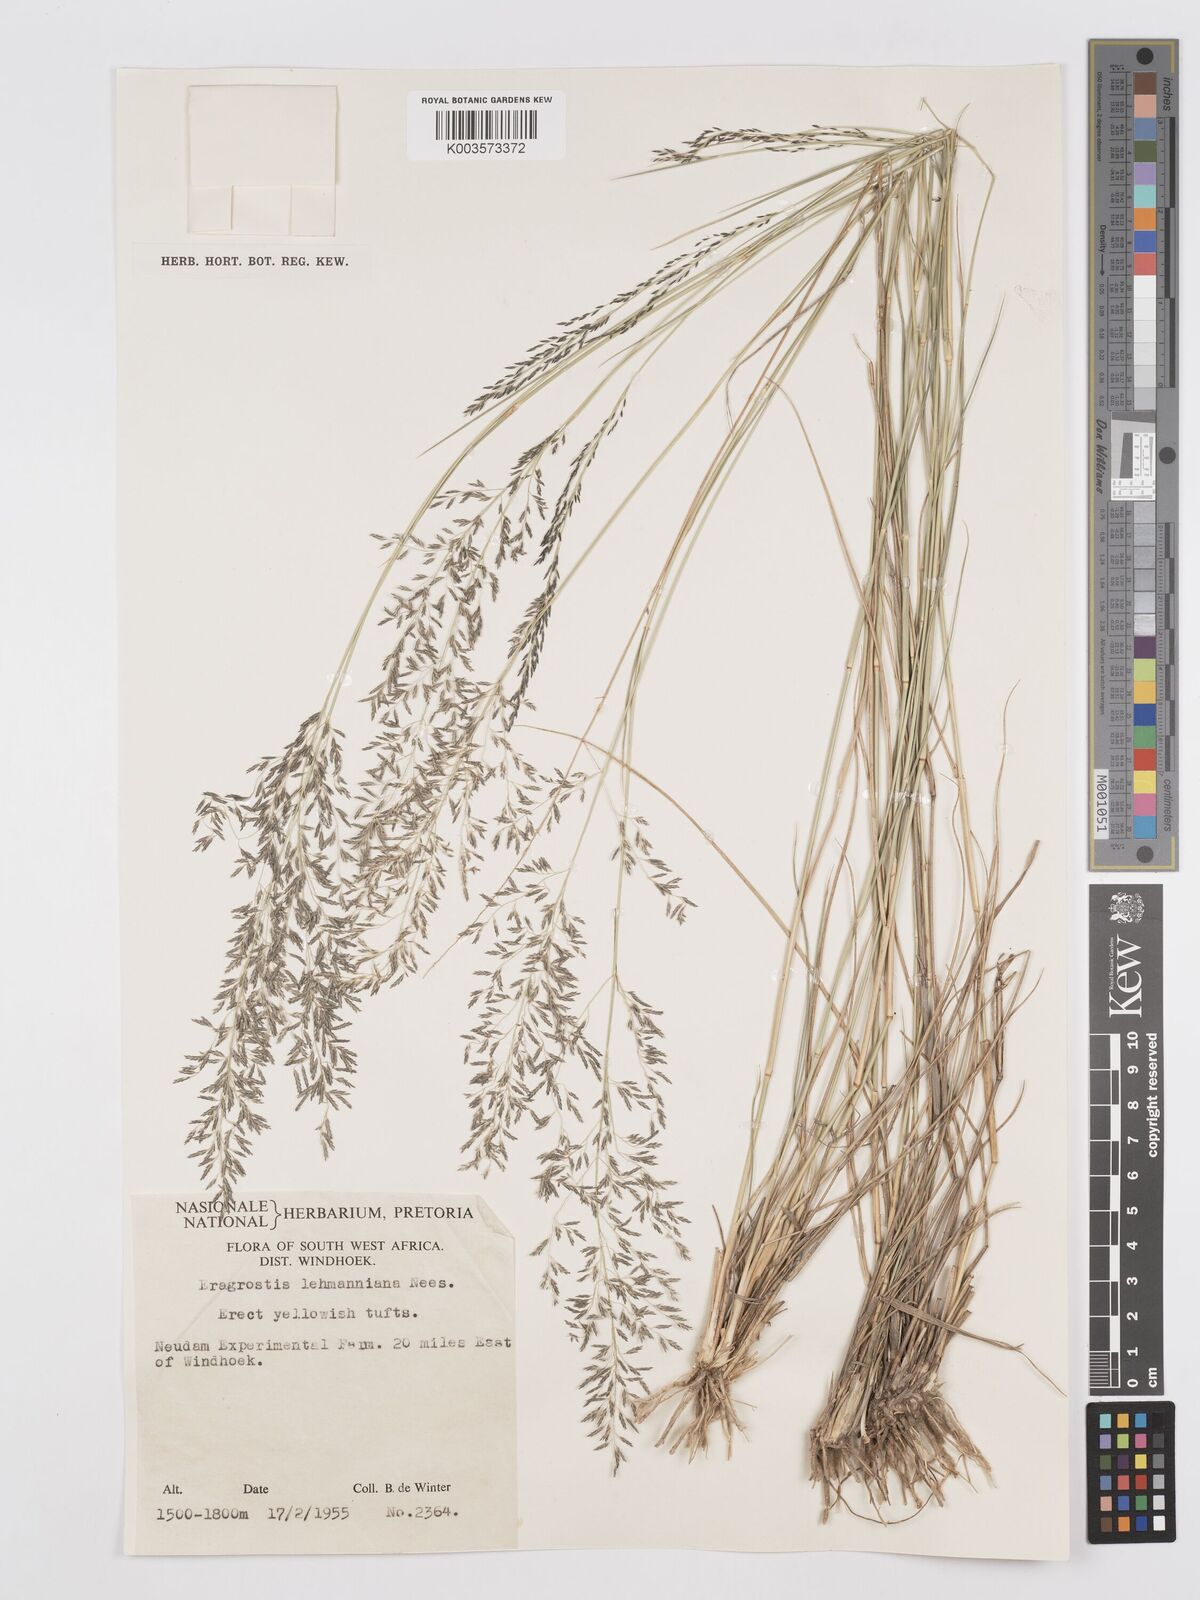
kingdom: Plantae
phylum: Tracheophyta
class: Liliopsida
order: Poales
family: Poaceae
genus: Eragrostis
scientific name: Eragrostis lehmanniana
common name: Lehmann lovegrass
